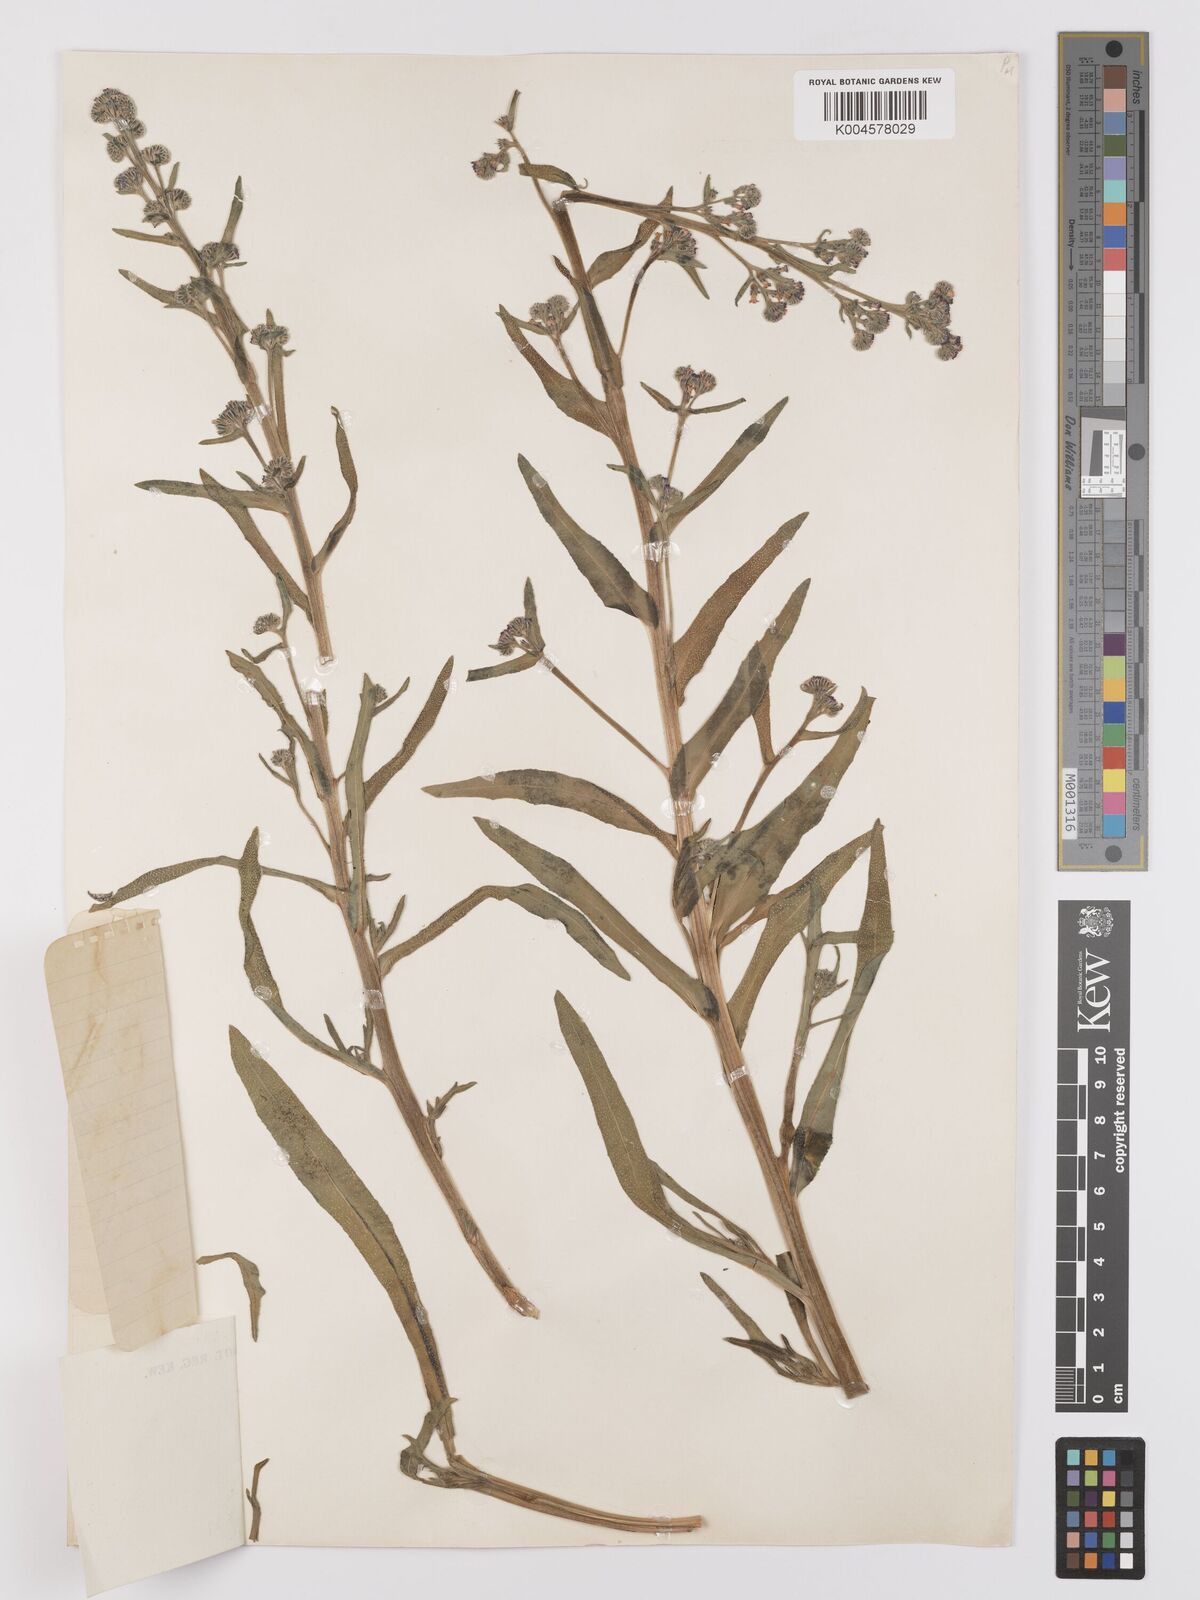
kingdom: Plantae
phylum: Tracheophyta
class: Magnoliopsida
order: Boraginales
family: Boraginaceae
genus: Anchusa
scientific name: Anchusa capensis
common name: Cape bugloss
